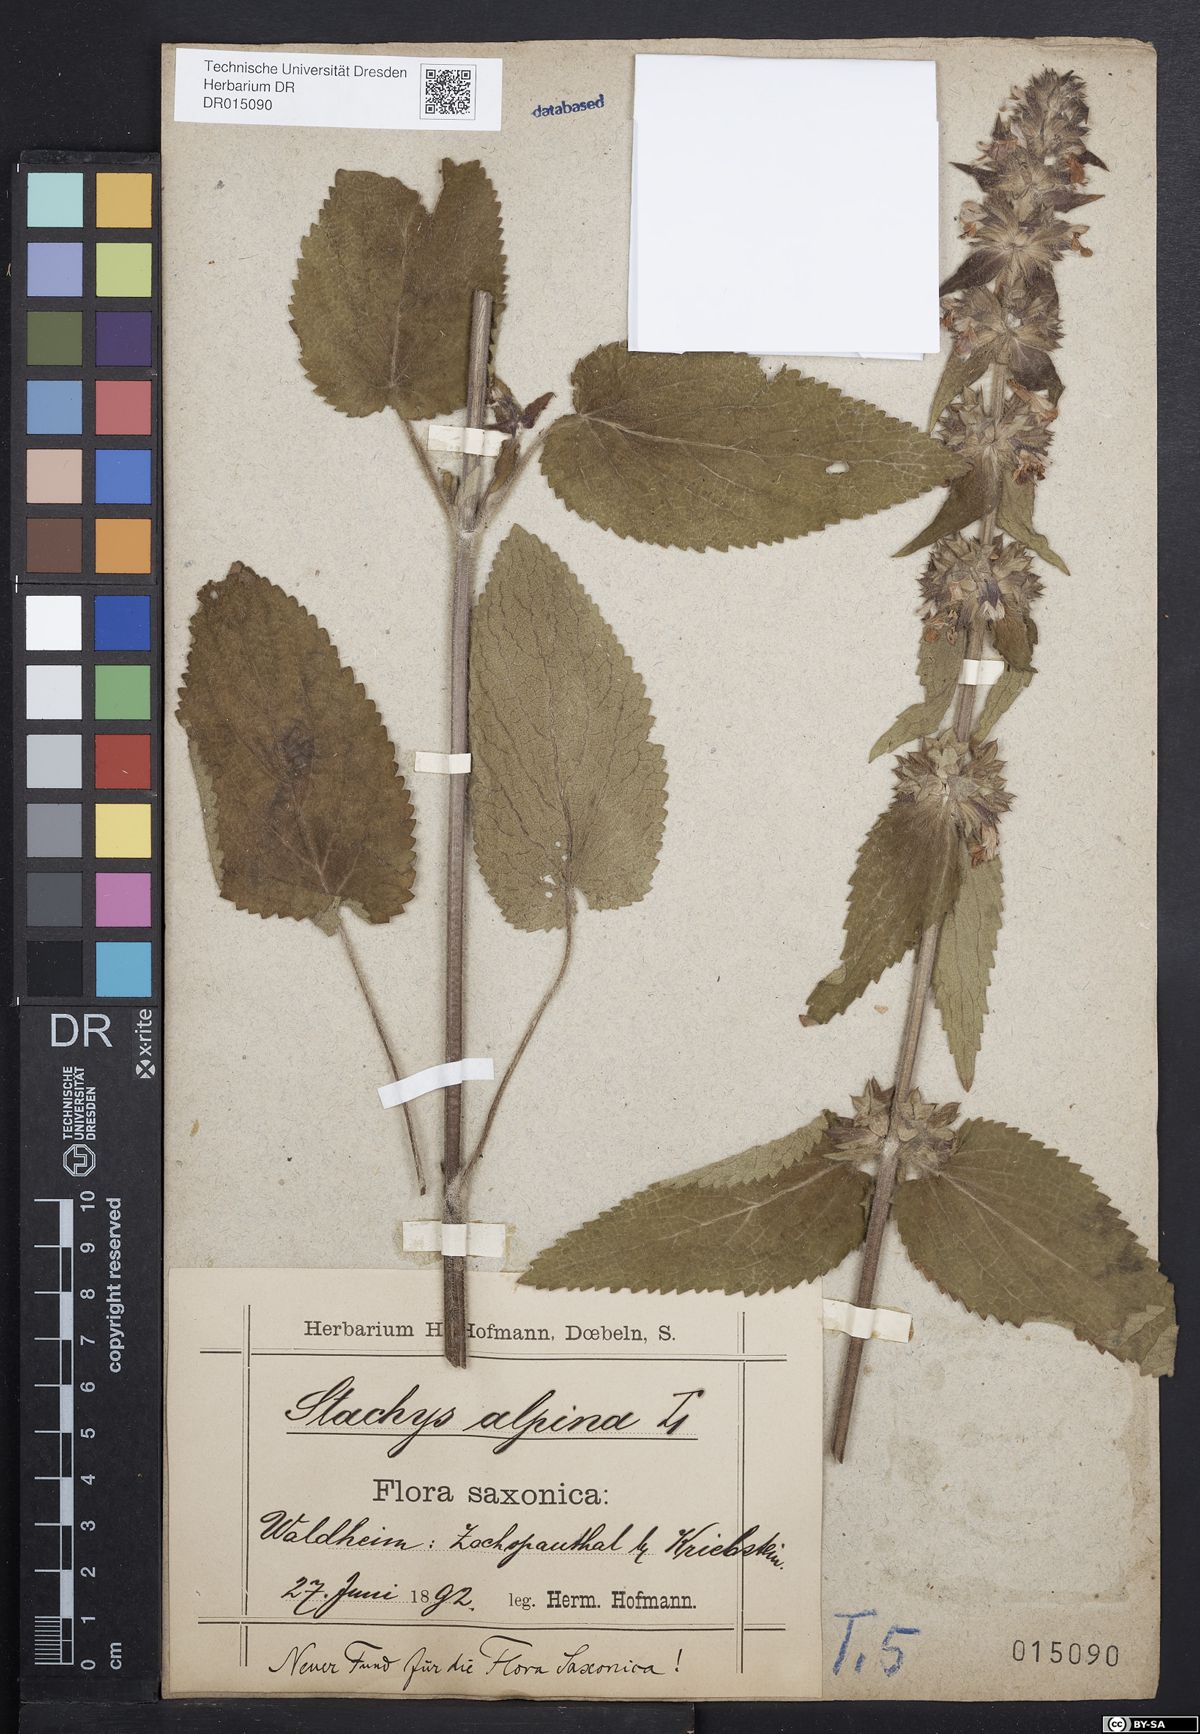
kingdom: Plantae
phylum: Tracheophyta
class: Magnoliopsida
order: Lamiales
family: Lamiaceae
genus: Stachys
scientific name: Stachys alpina
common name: Limestone woundwort
